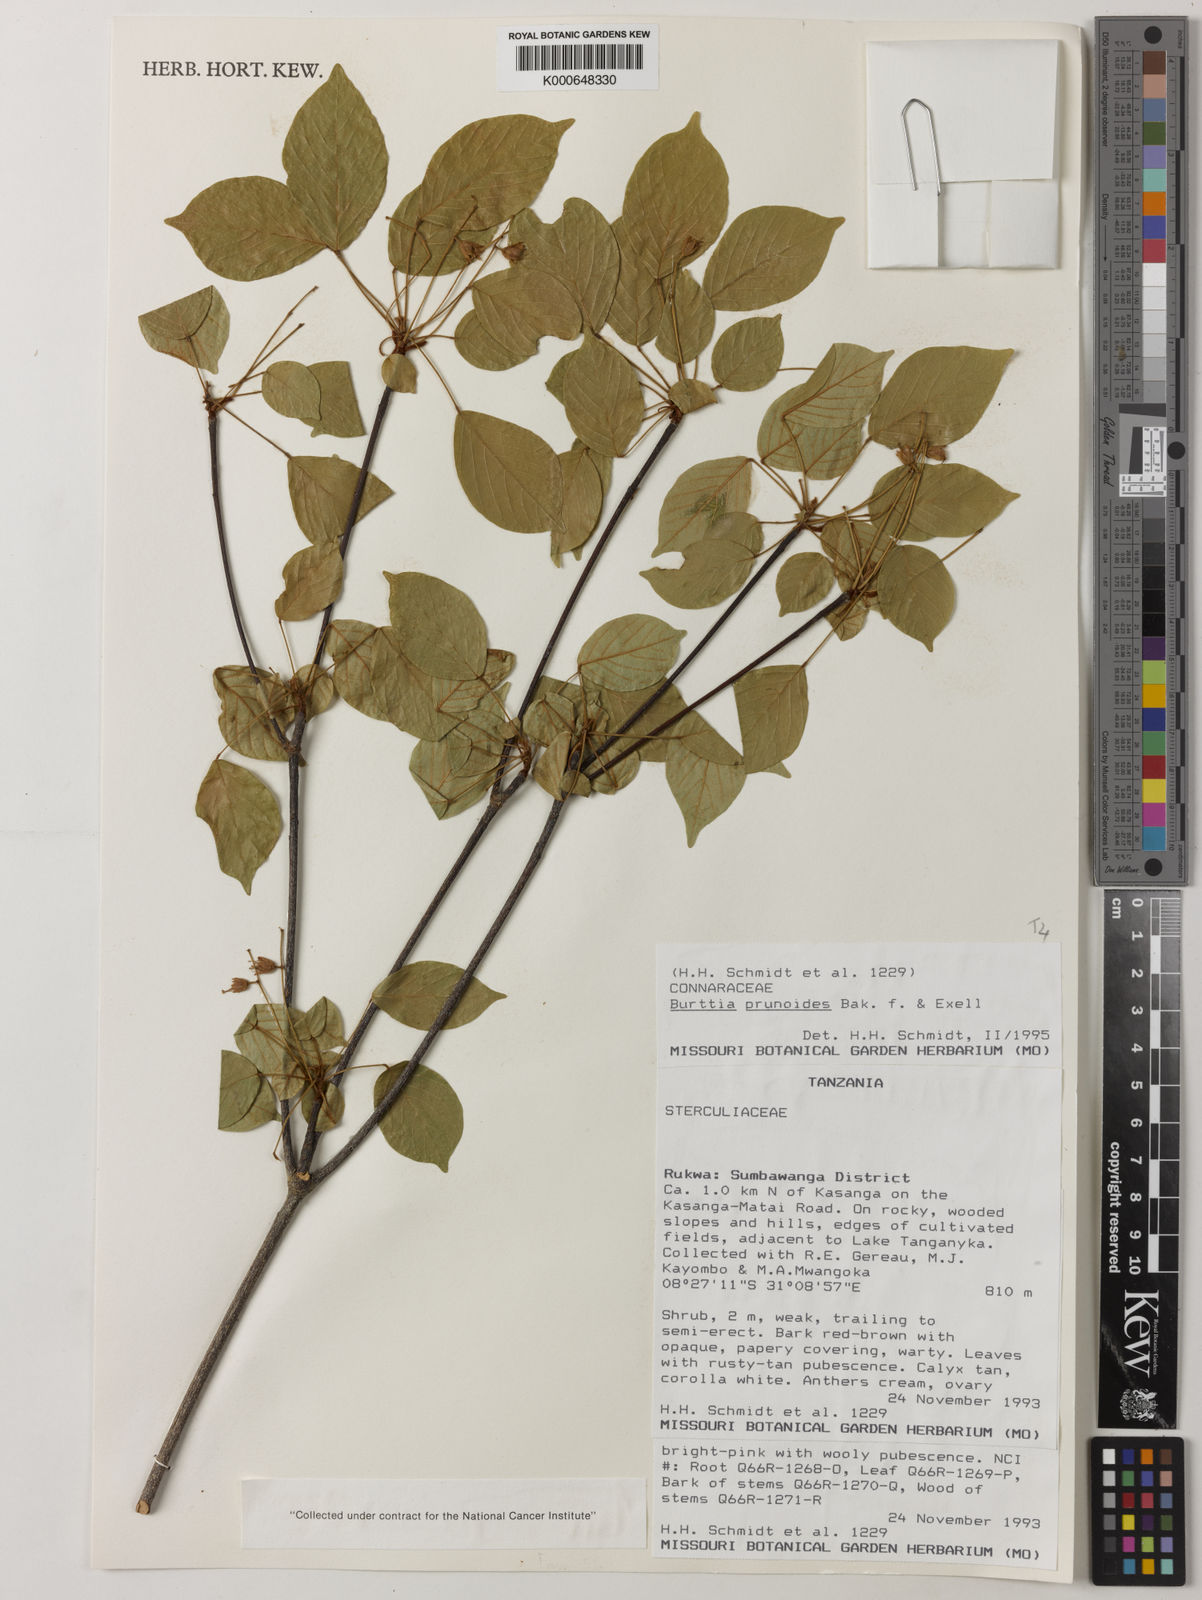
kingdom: Plantae
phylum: Tracheophyta
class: Magnoliopsida
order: Oxalidales
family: Connaraceae
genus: Burttia
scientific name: Burttia prunoides
